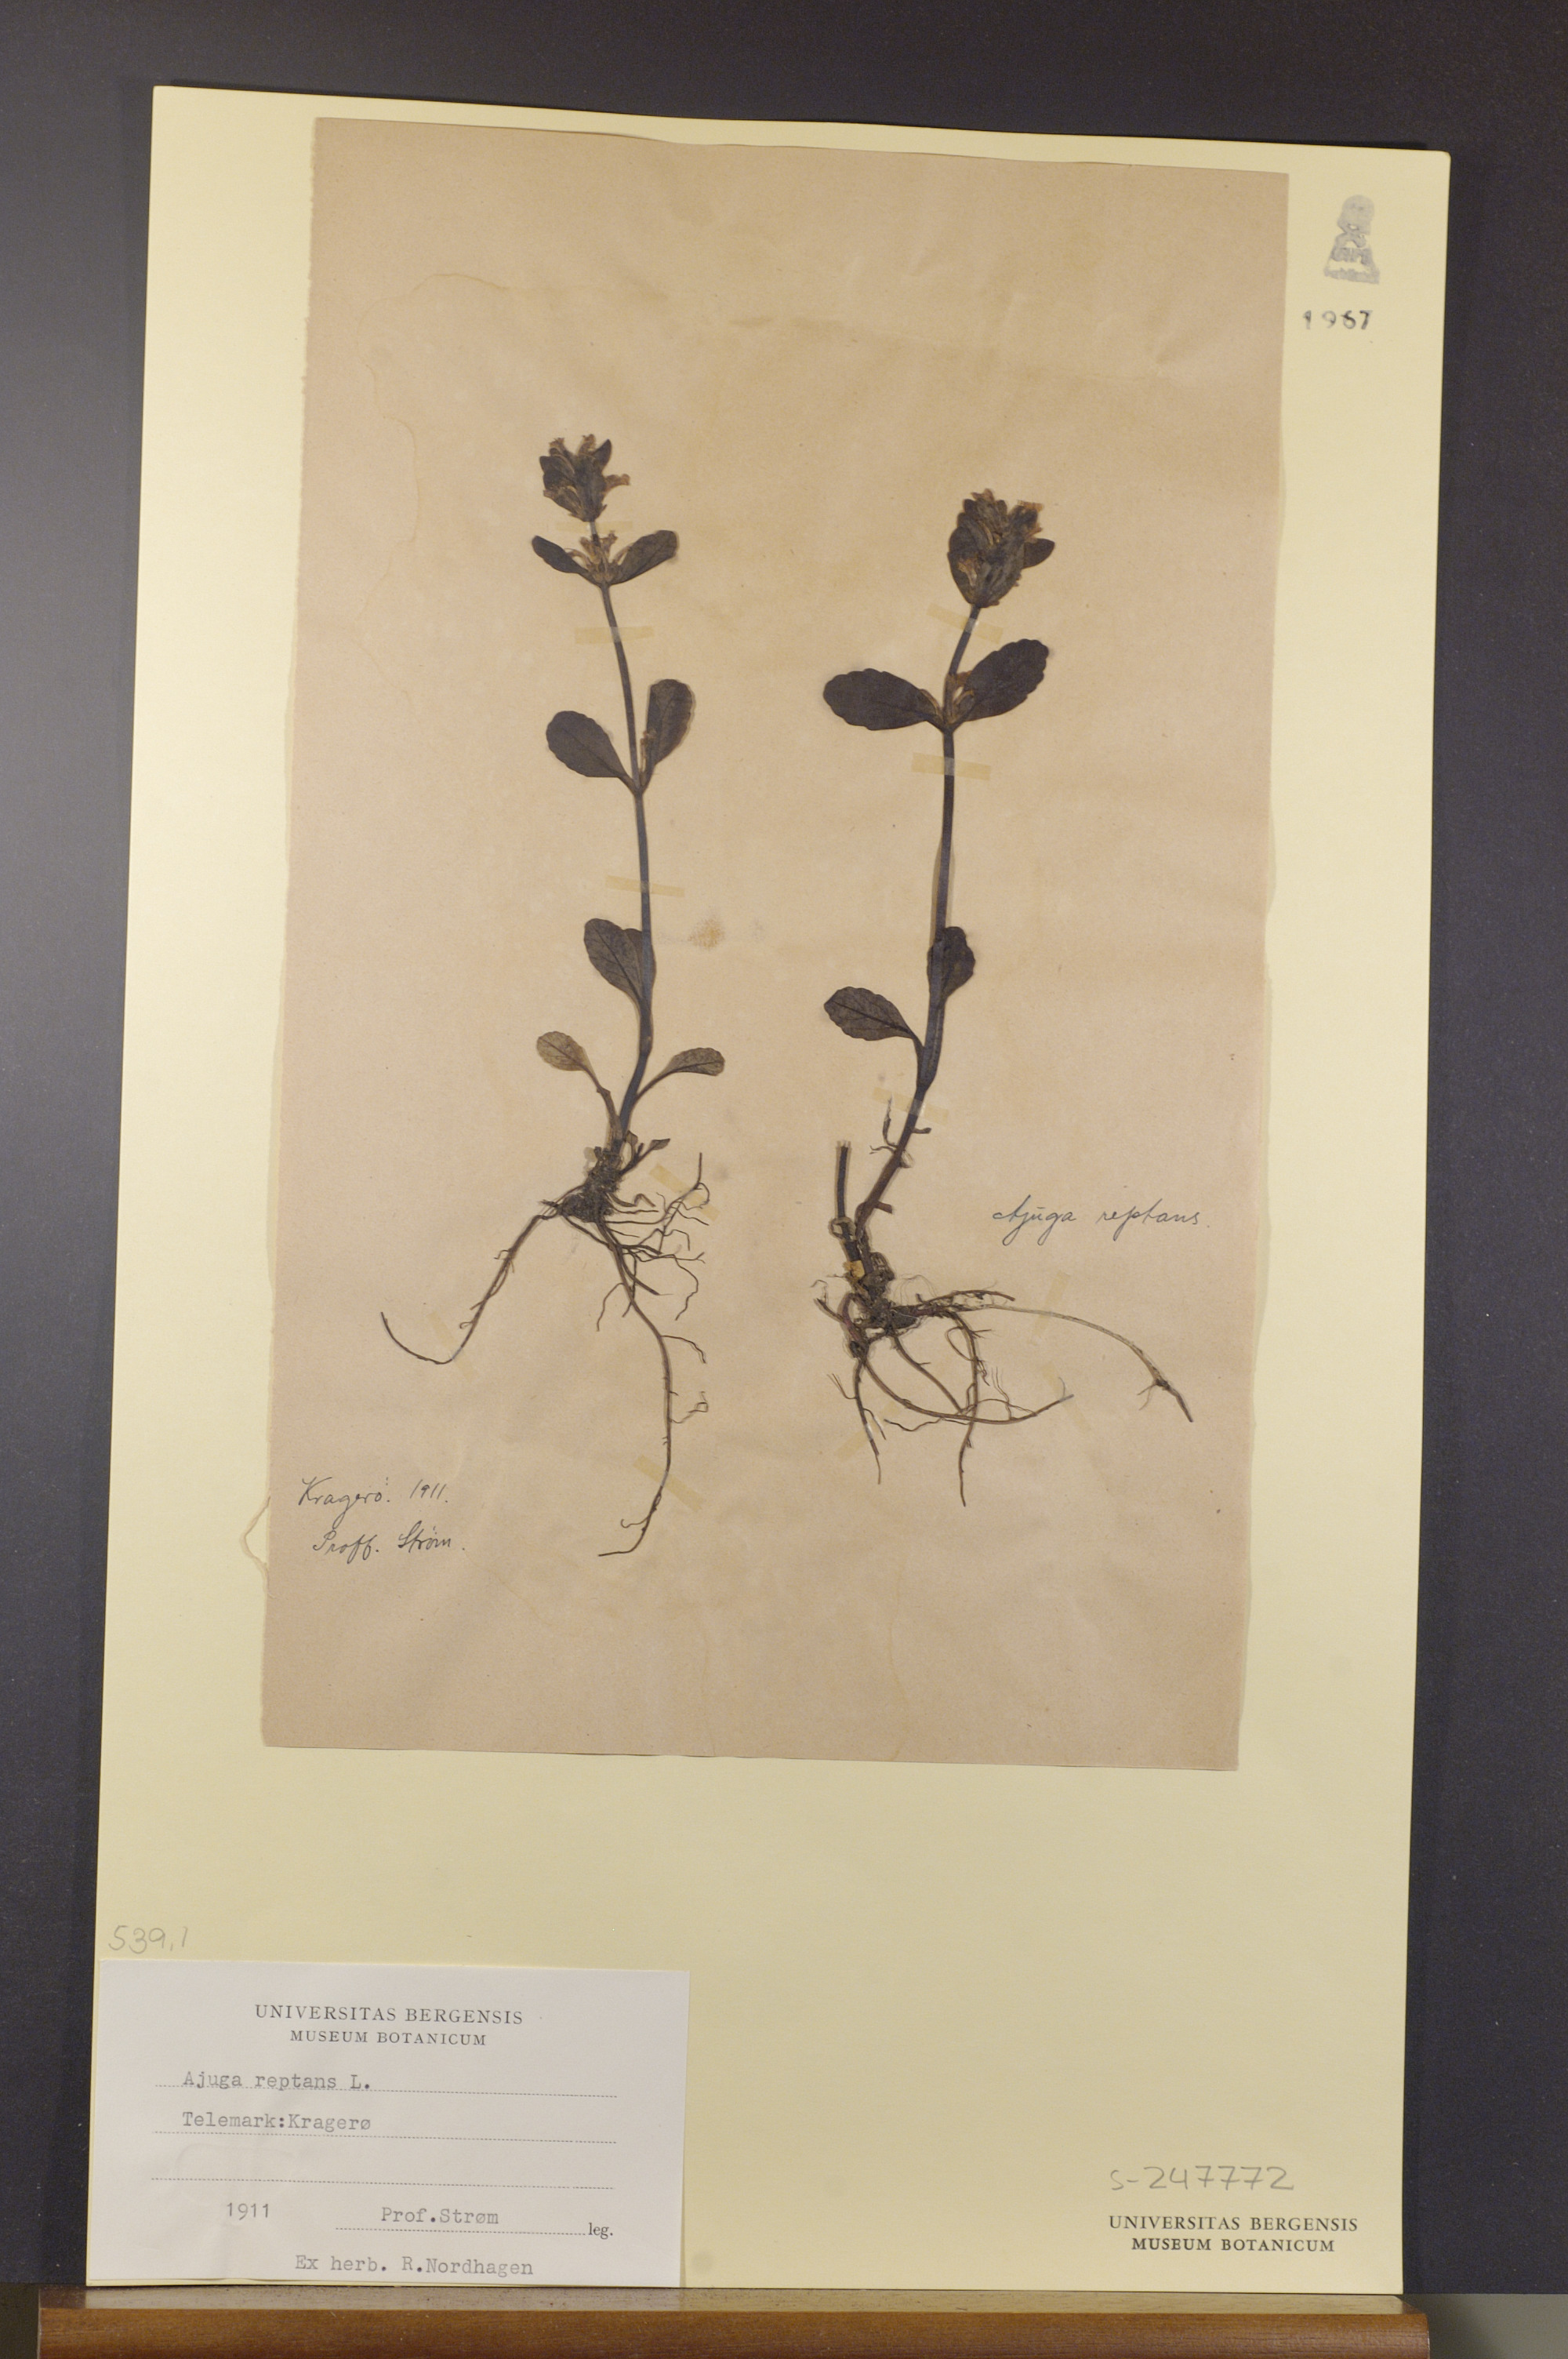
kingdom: Plantae
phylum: Tracheophyta
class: Magnoliopsida
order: Lamiales
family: Lamiaceae
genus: Ajuga
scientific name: Ajuga reptans
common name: Bugle
